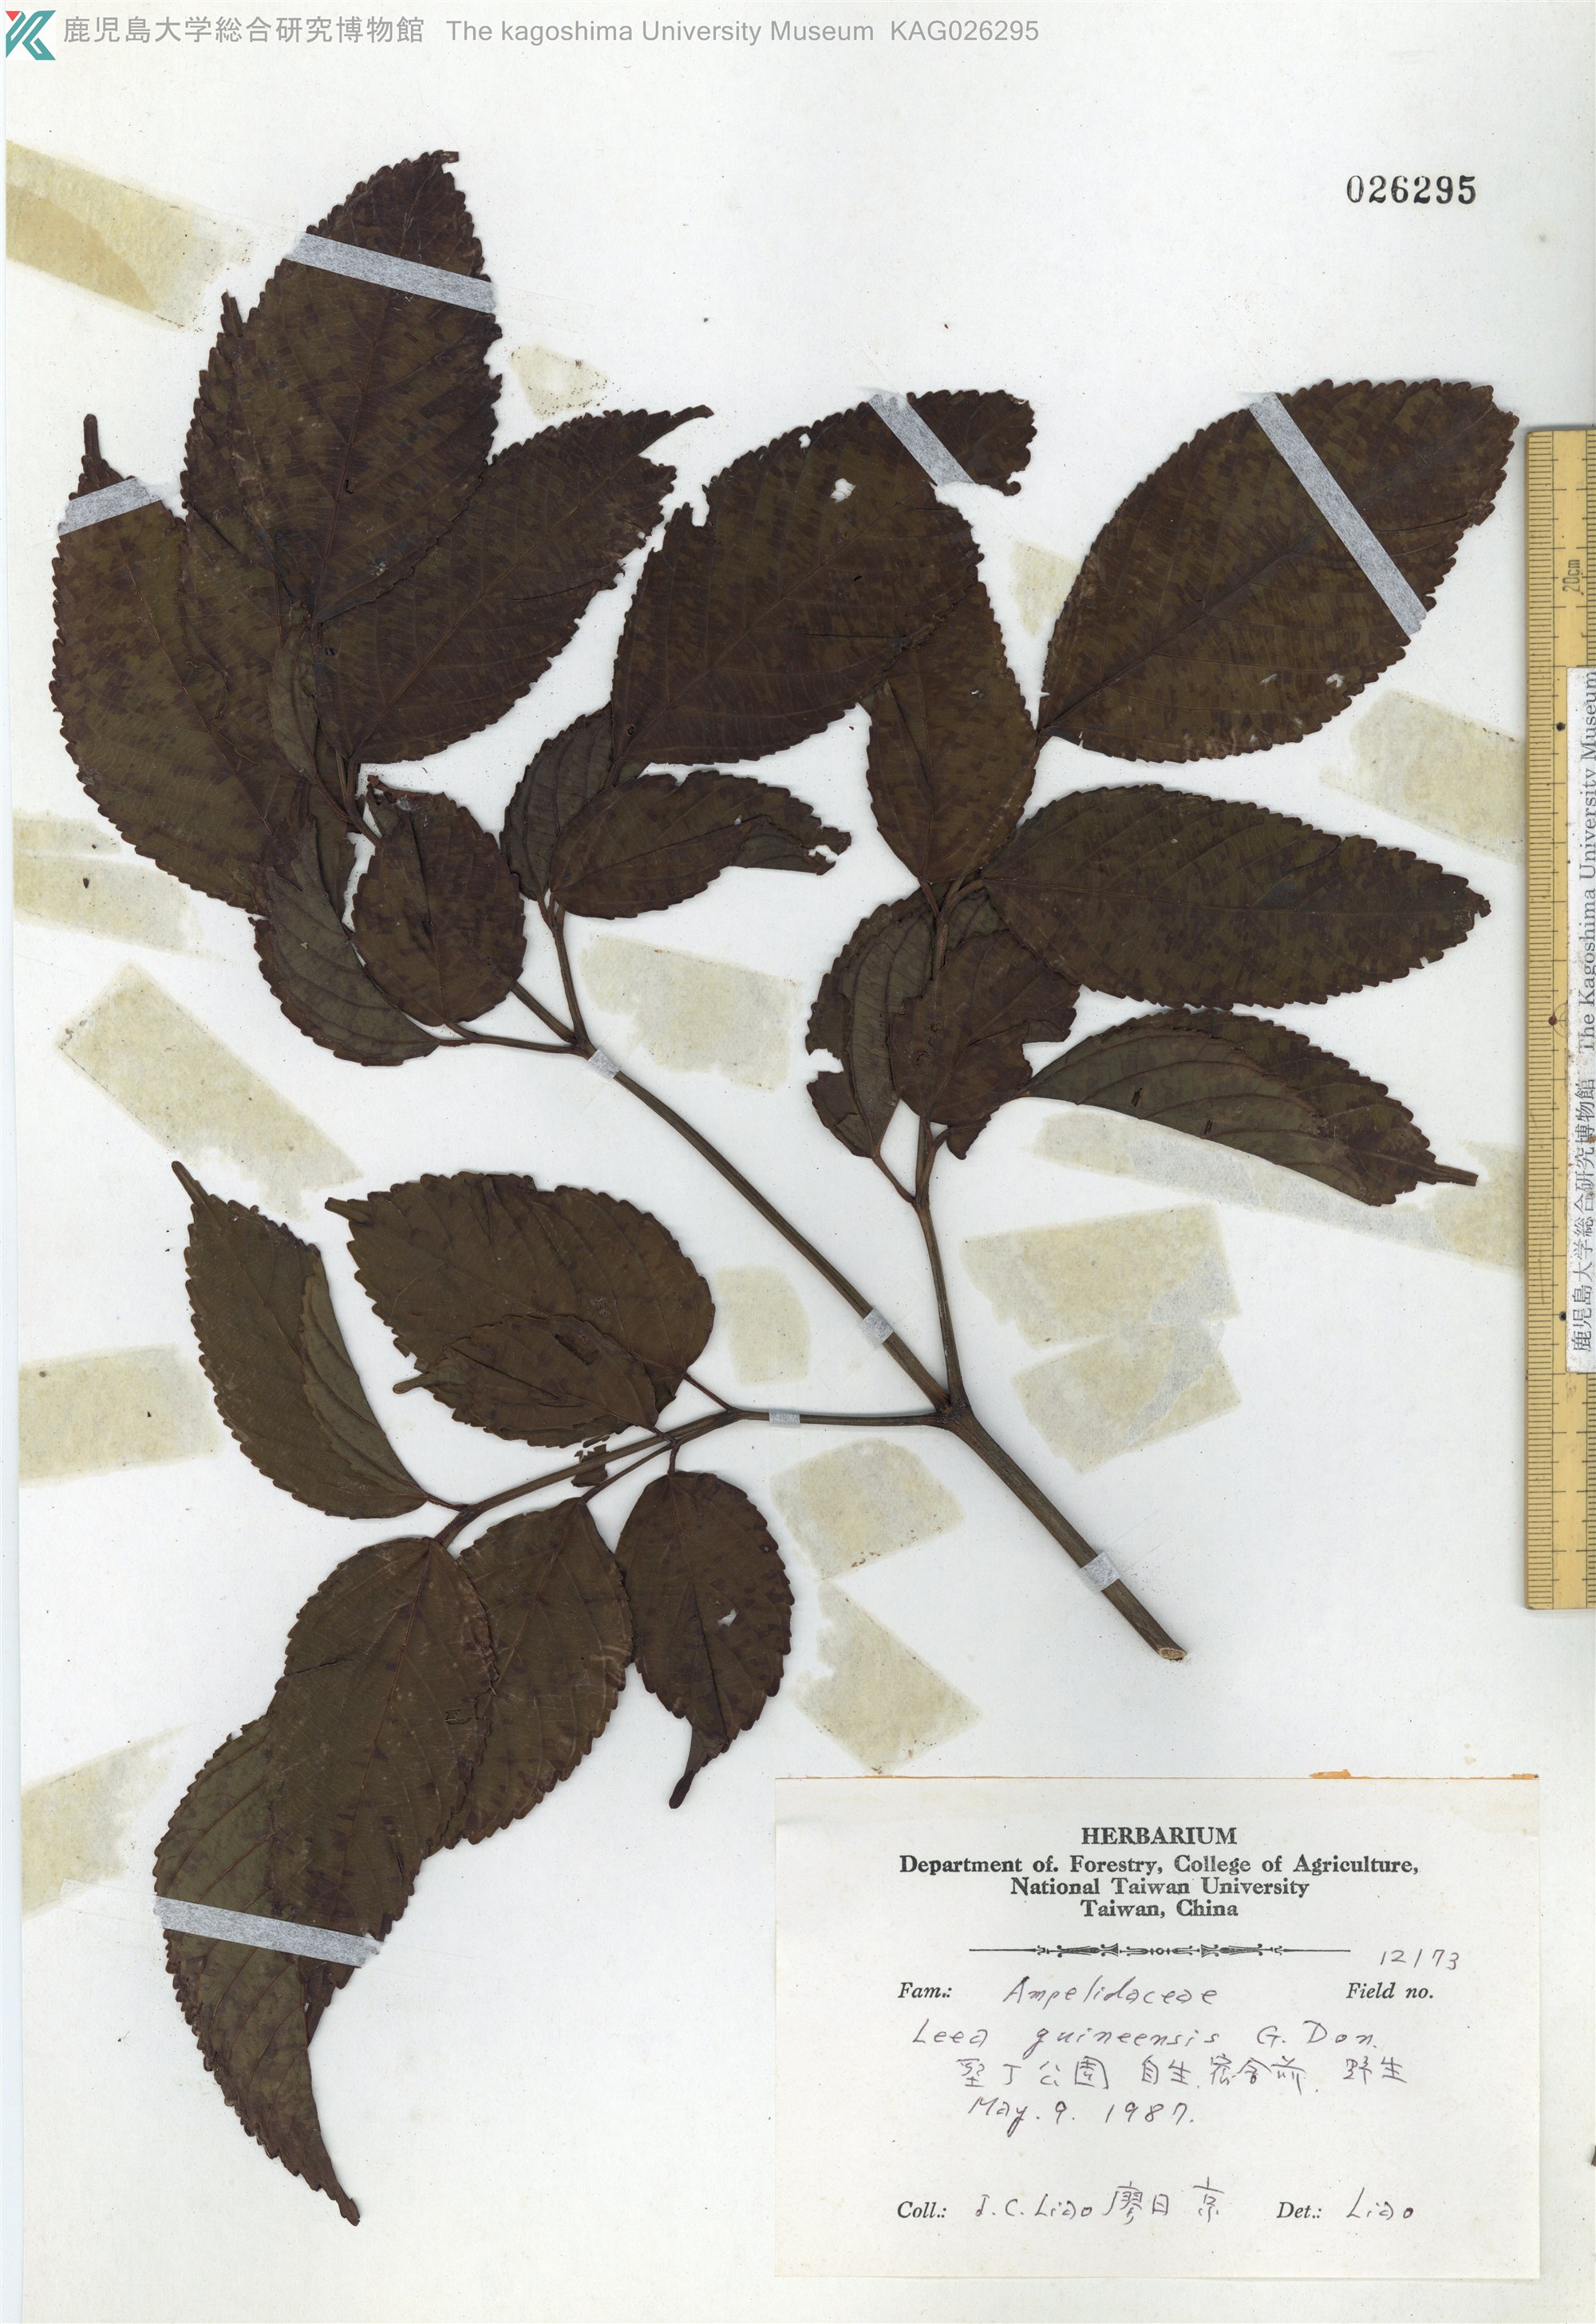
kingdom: Plantae
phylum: Tracheophyta
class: Magnoliopsida
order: Vitales
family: Vitaceae
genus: Leea
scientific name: Leea guineensis
